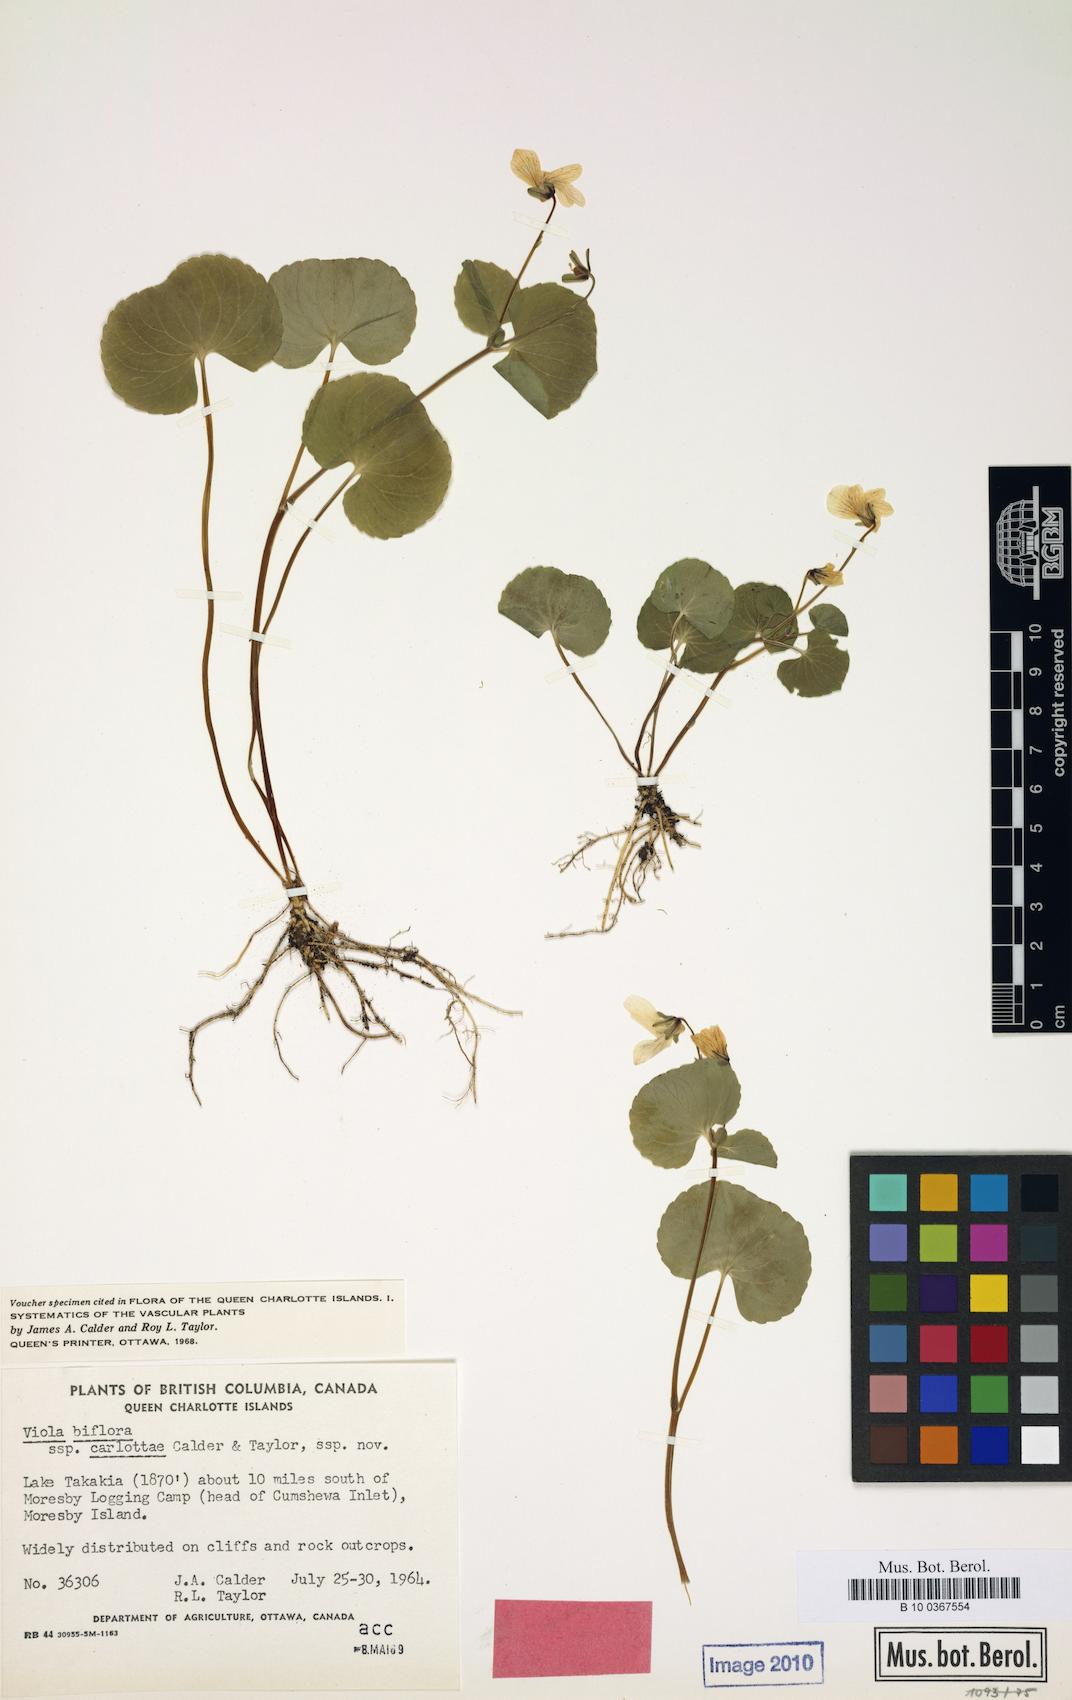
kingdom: Plantae
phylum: Tracheophyta
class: Magnoliopsida
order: Malpighiales
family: Violaceae
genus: Viola
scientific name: Viola crassa
